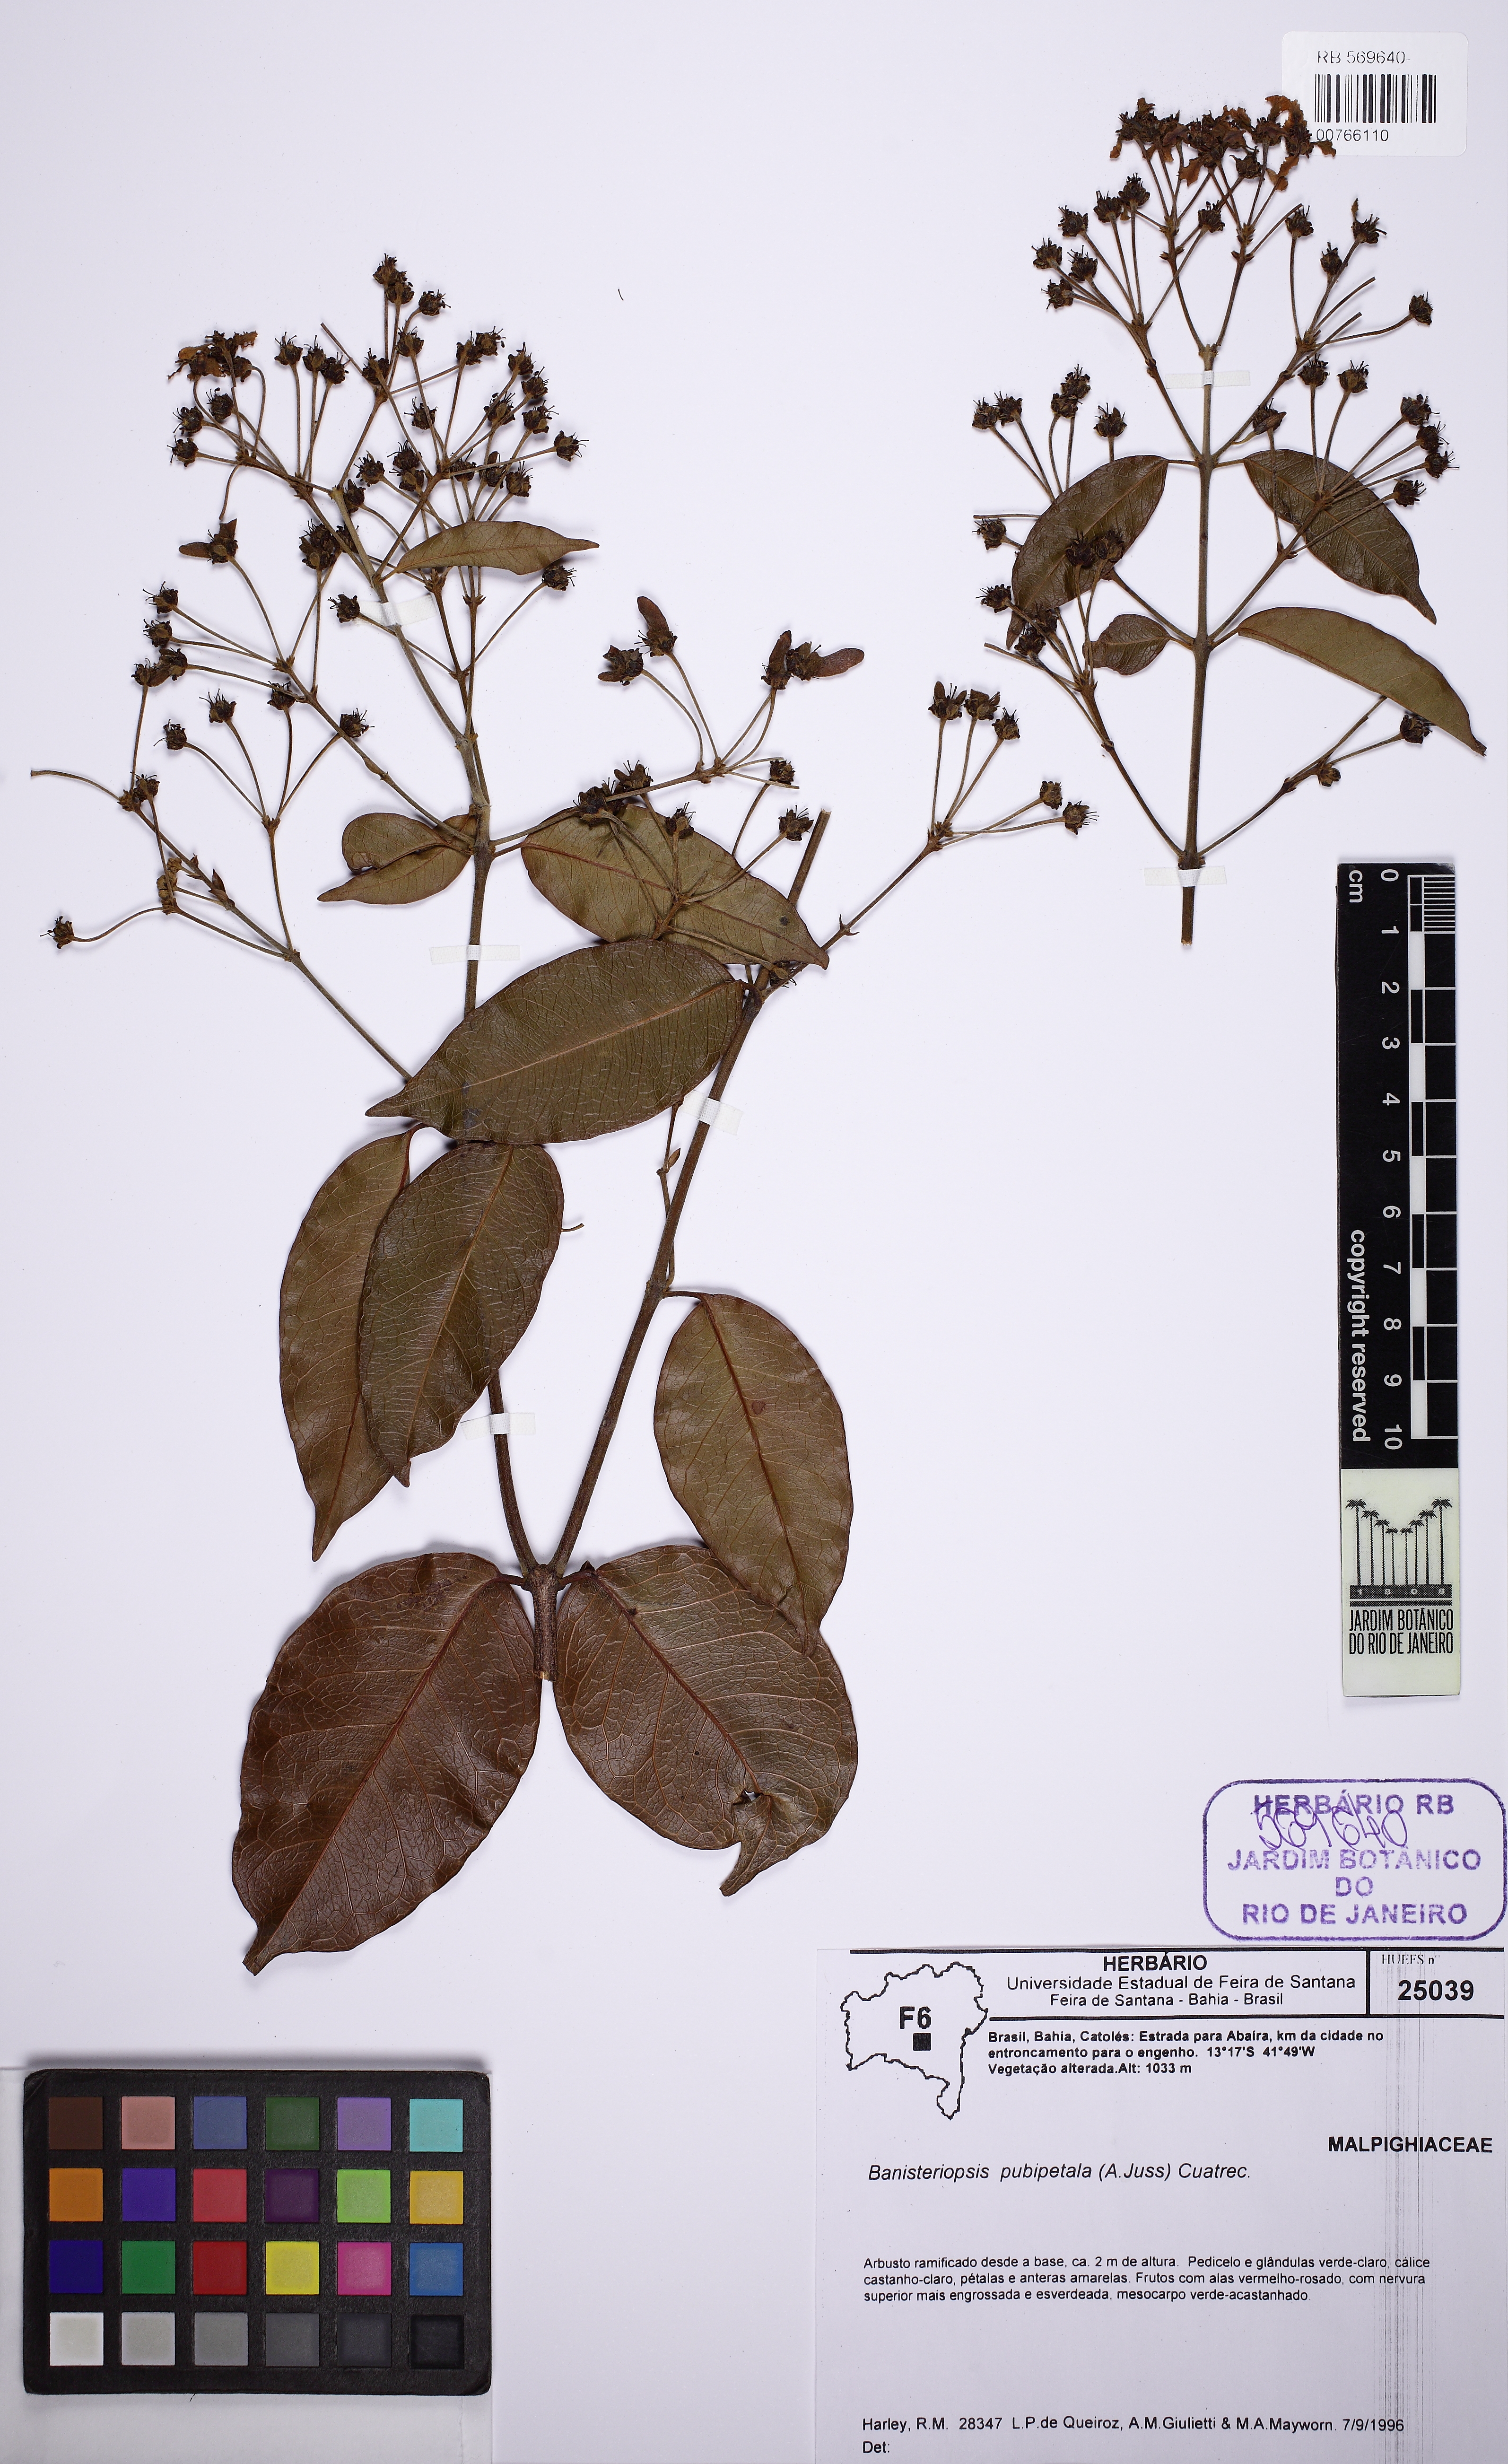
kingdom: Plantae
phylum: Tracheophyta
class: Magnoliopsida
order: Malpighiales
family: Malpighiaceae
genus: Diplopterys
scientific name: Diplopterys pubipetala
